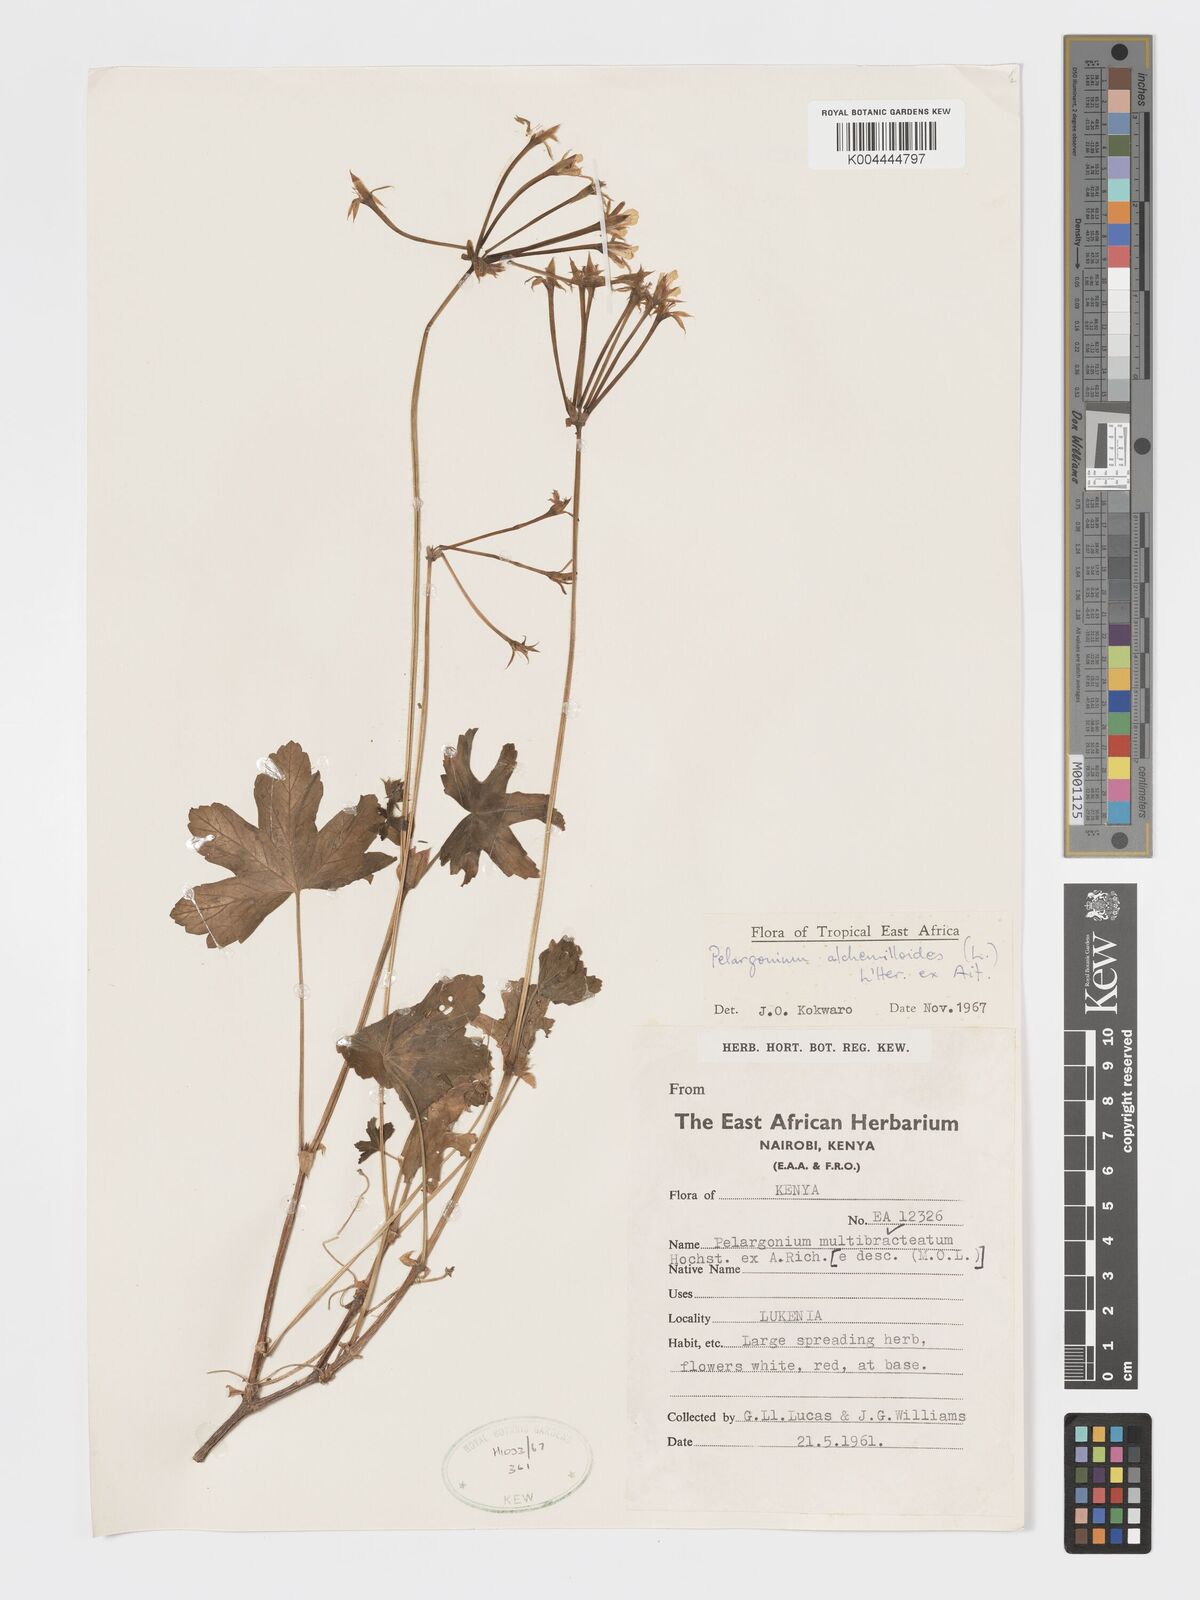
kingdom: Plantae
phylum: Tracheophyta
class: Magnoliopsida
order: Geraniales
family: Geraniaceae
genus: Pelargonium
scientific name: Pelargonium alchemilloides
